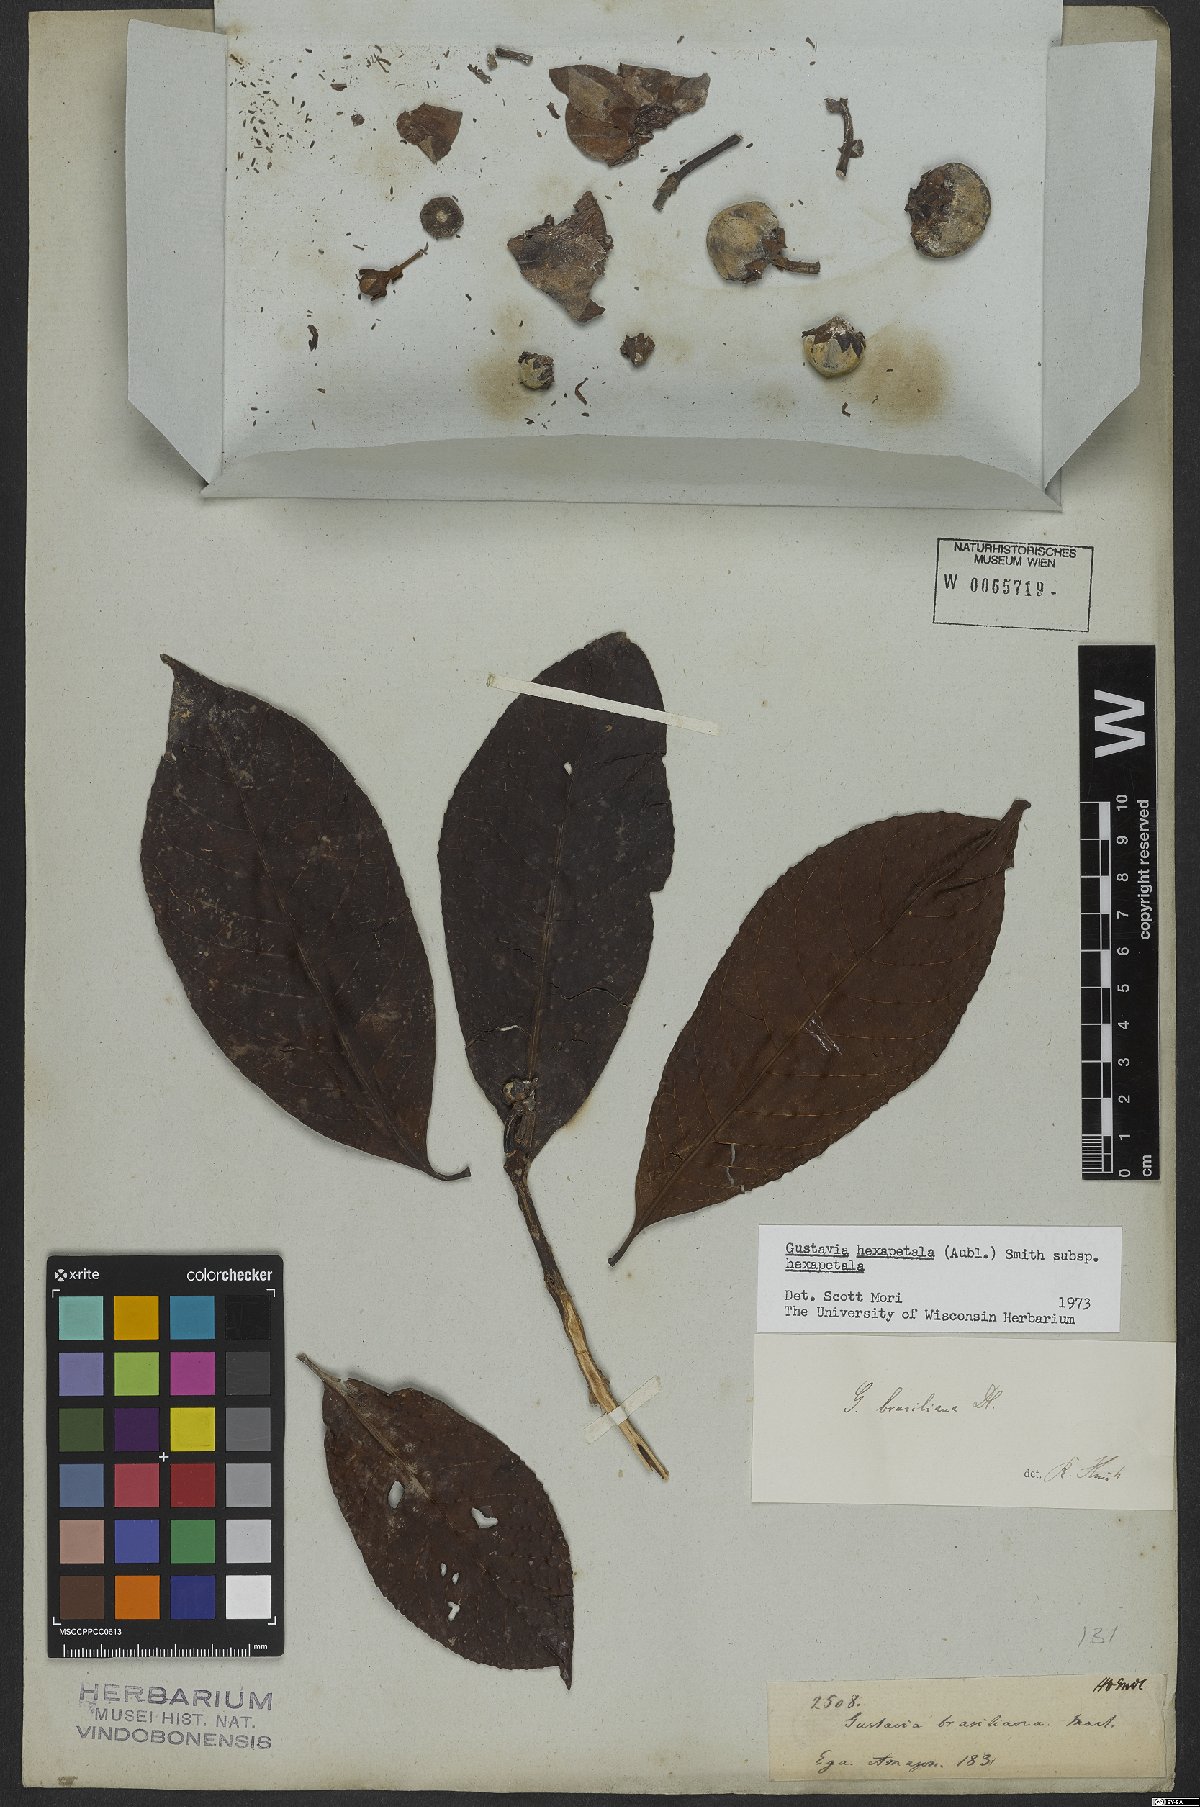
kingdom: Plantae
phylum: Tracheophyta
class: Magnoliopsida
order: Ericales
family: Lecythidaceae
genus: Gustavia
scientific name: Gustavia hexapetala
